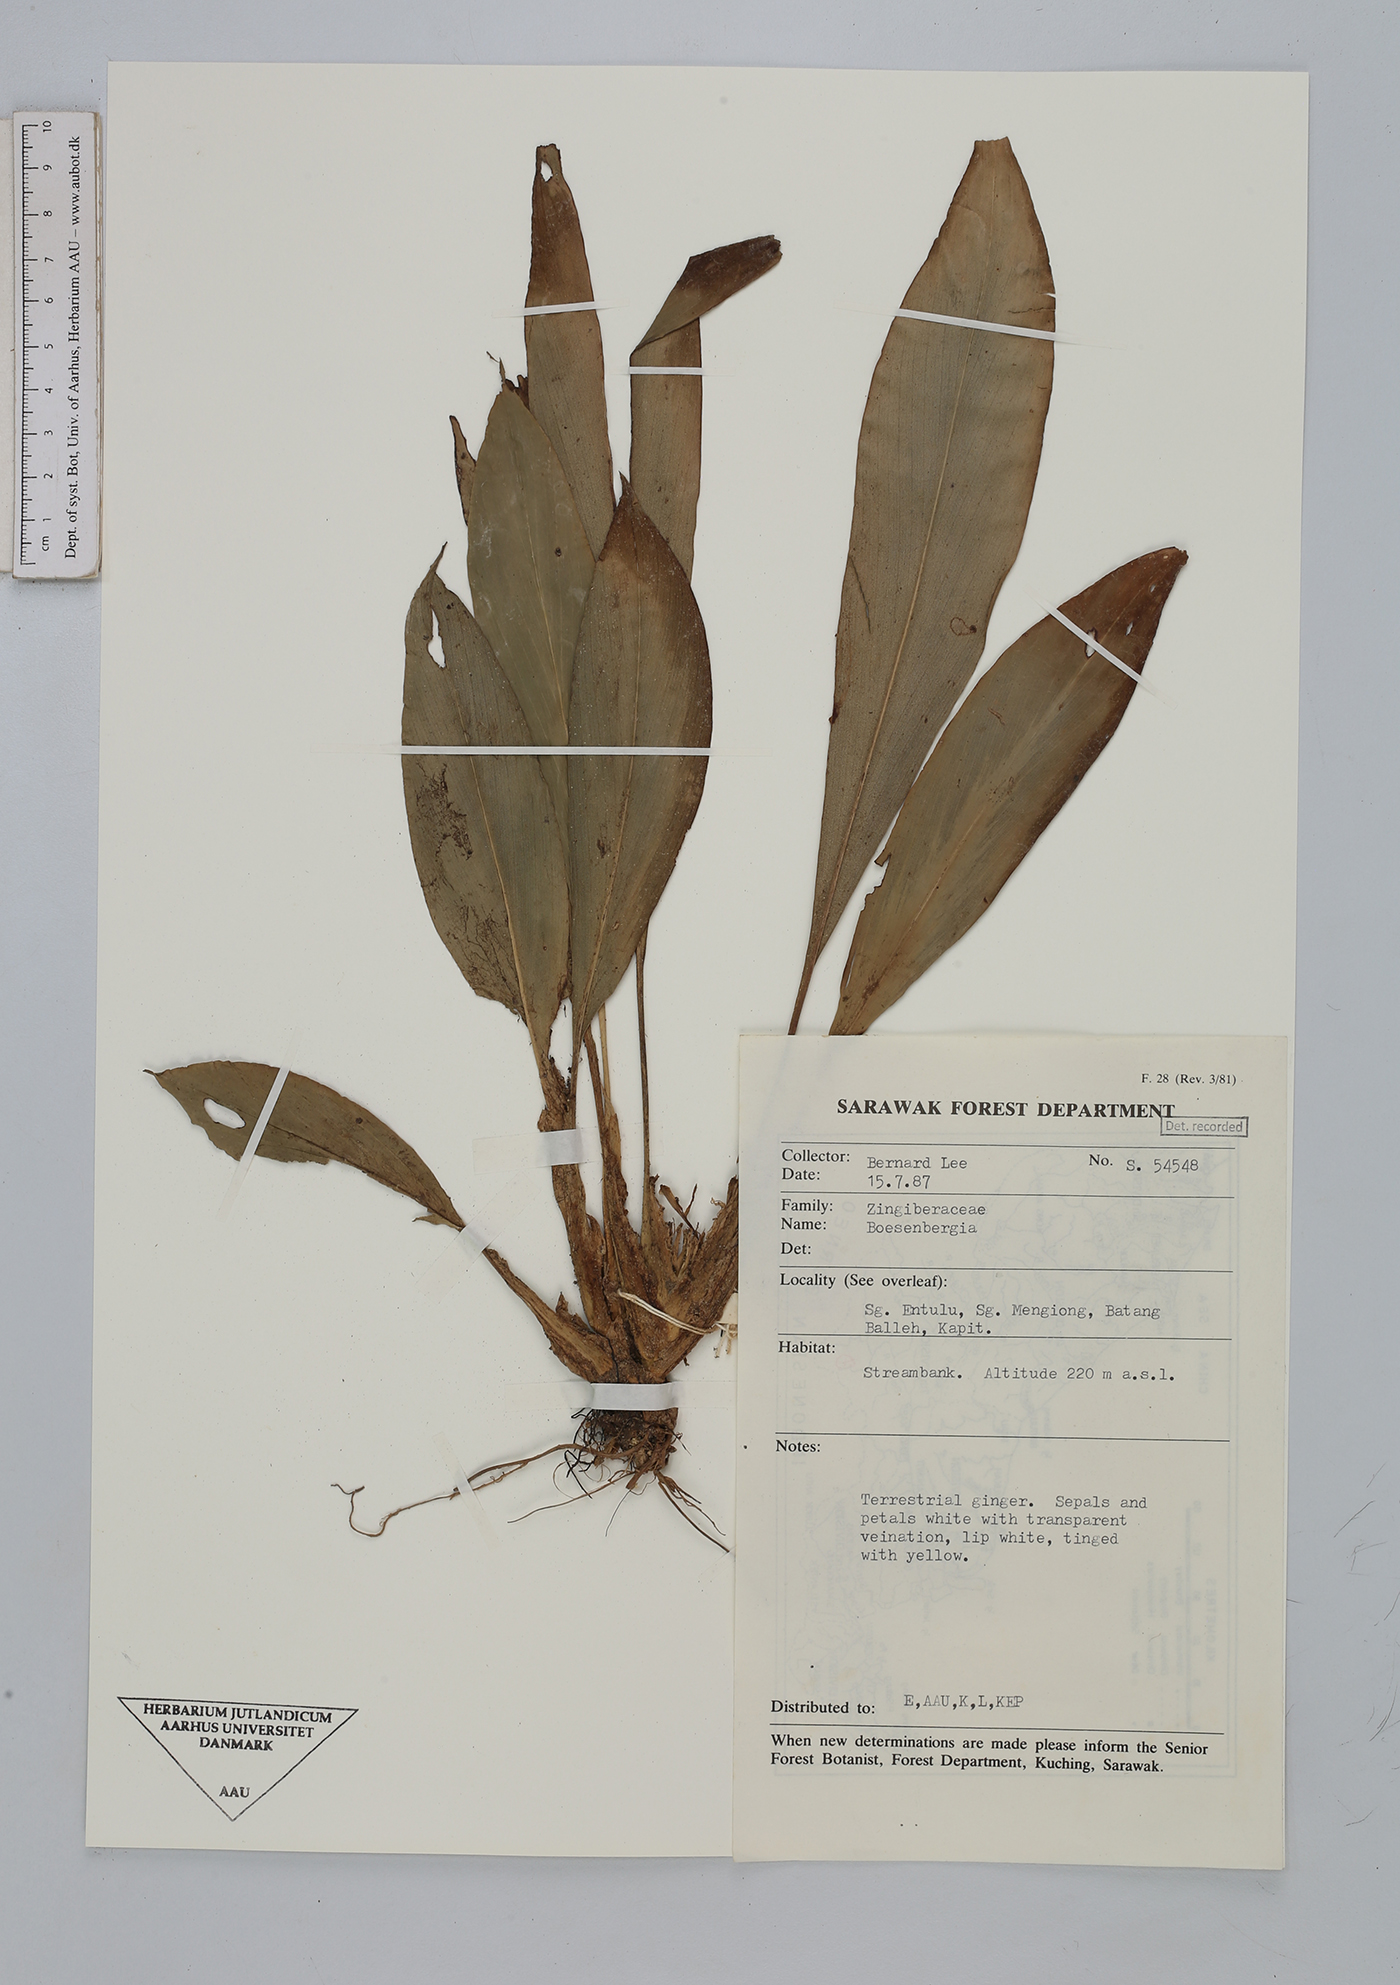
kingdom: Plantae
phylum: Tracheophyta
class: Liliopsida
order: Zingiberales
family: Zingiberaceae
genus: Boesenbergia
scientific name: Boesenbergia
